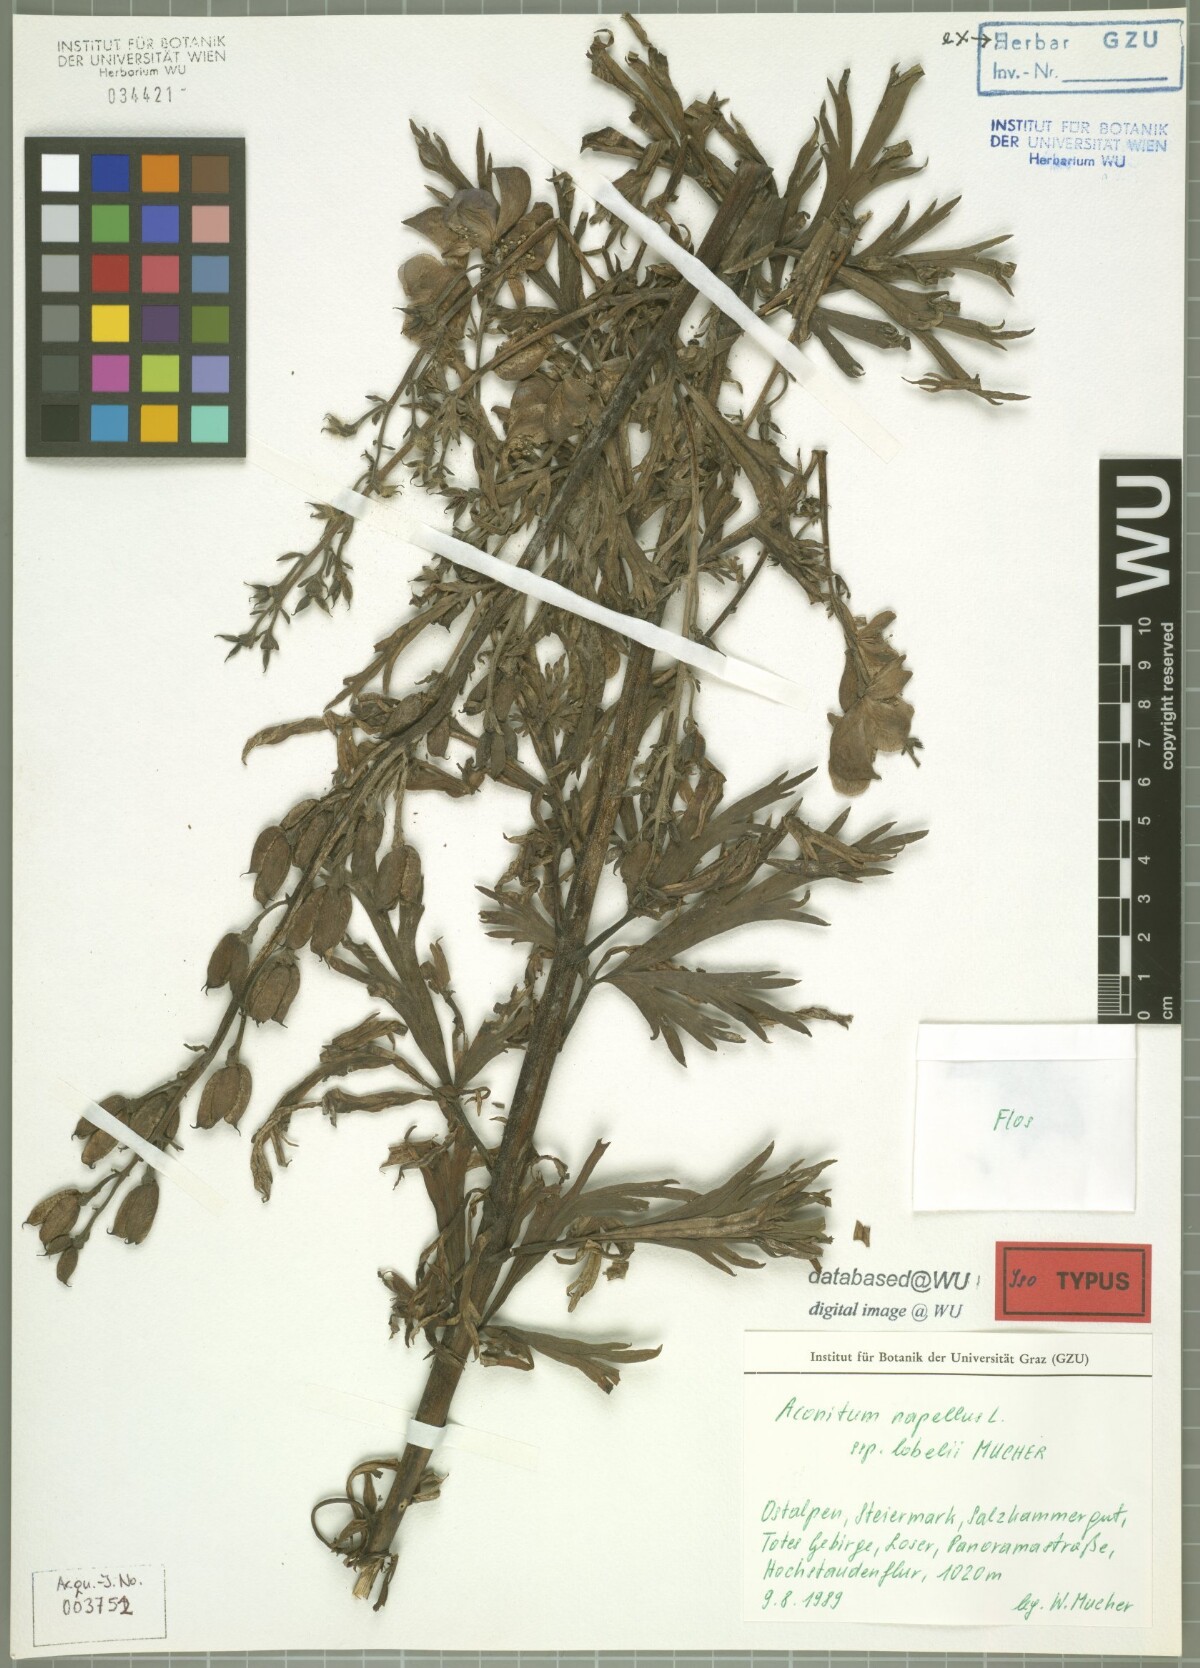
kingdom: Plantae
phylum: Tracheophyta
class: Magnoliopsida
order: Ranunculales
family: Ranunculaceae
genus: Aconitum
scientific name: Aconitum napellus
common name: Garden monkshood
